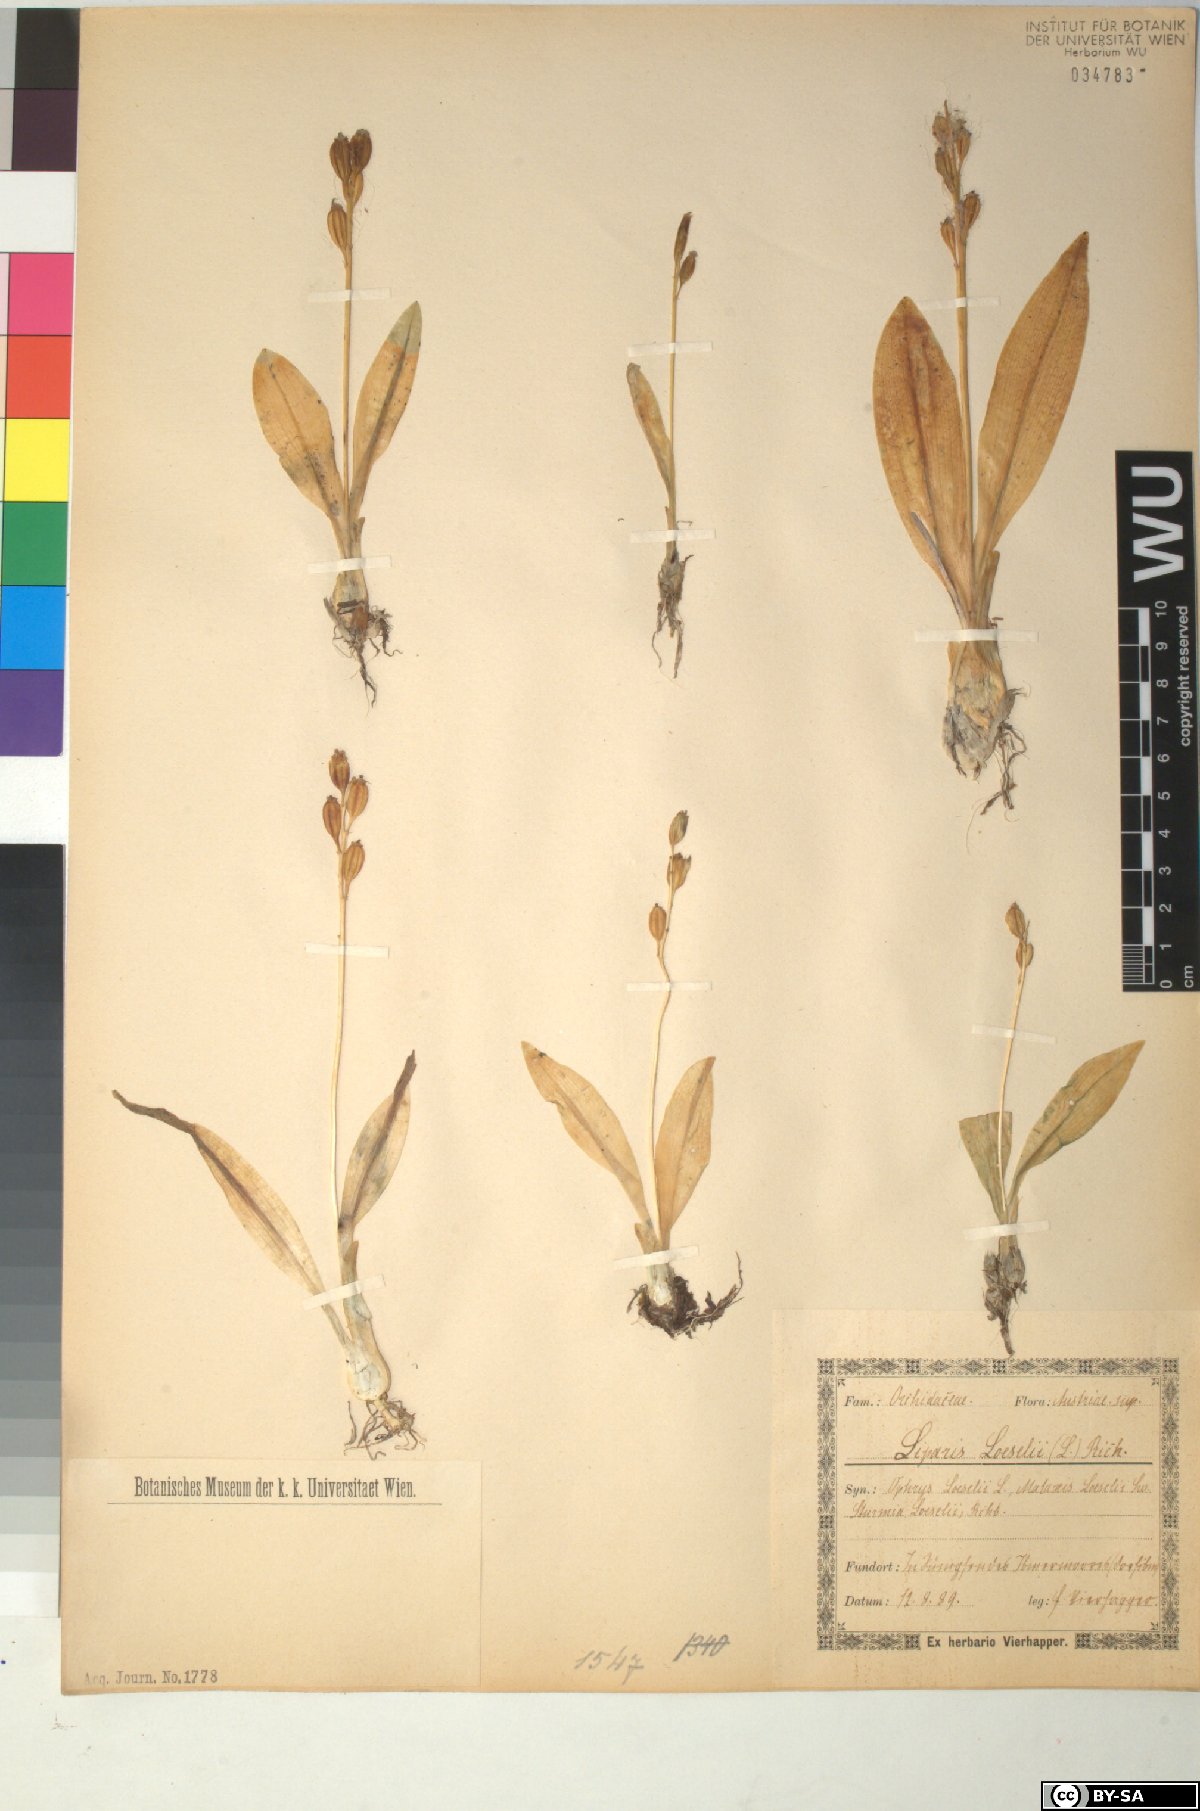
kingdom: Animalia
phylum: Arthropoda
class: Insecta
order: Coleoptera
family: Curculionidae
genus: Liparis
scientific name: Liparis loeselii
